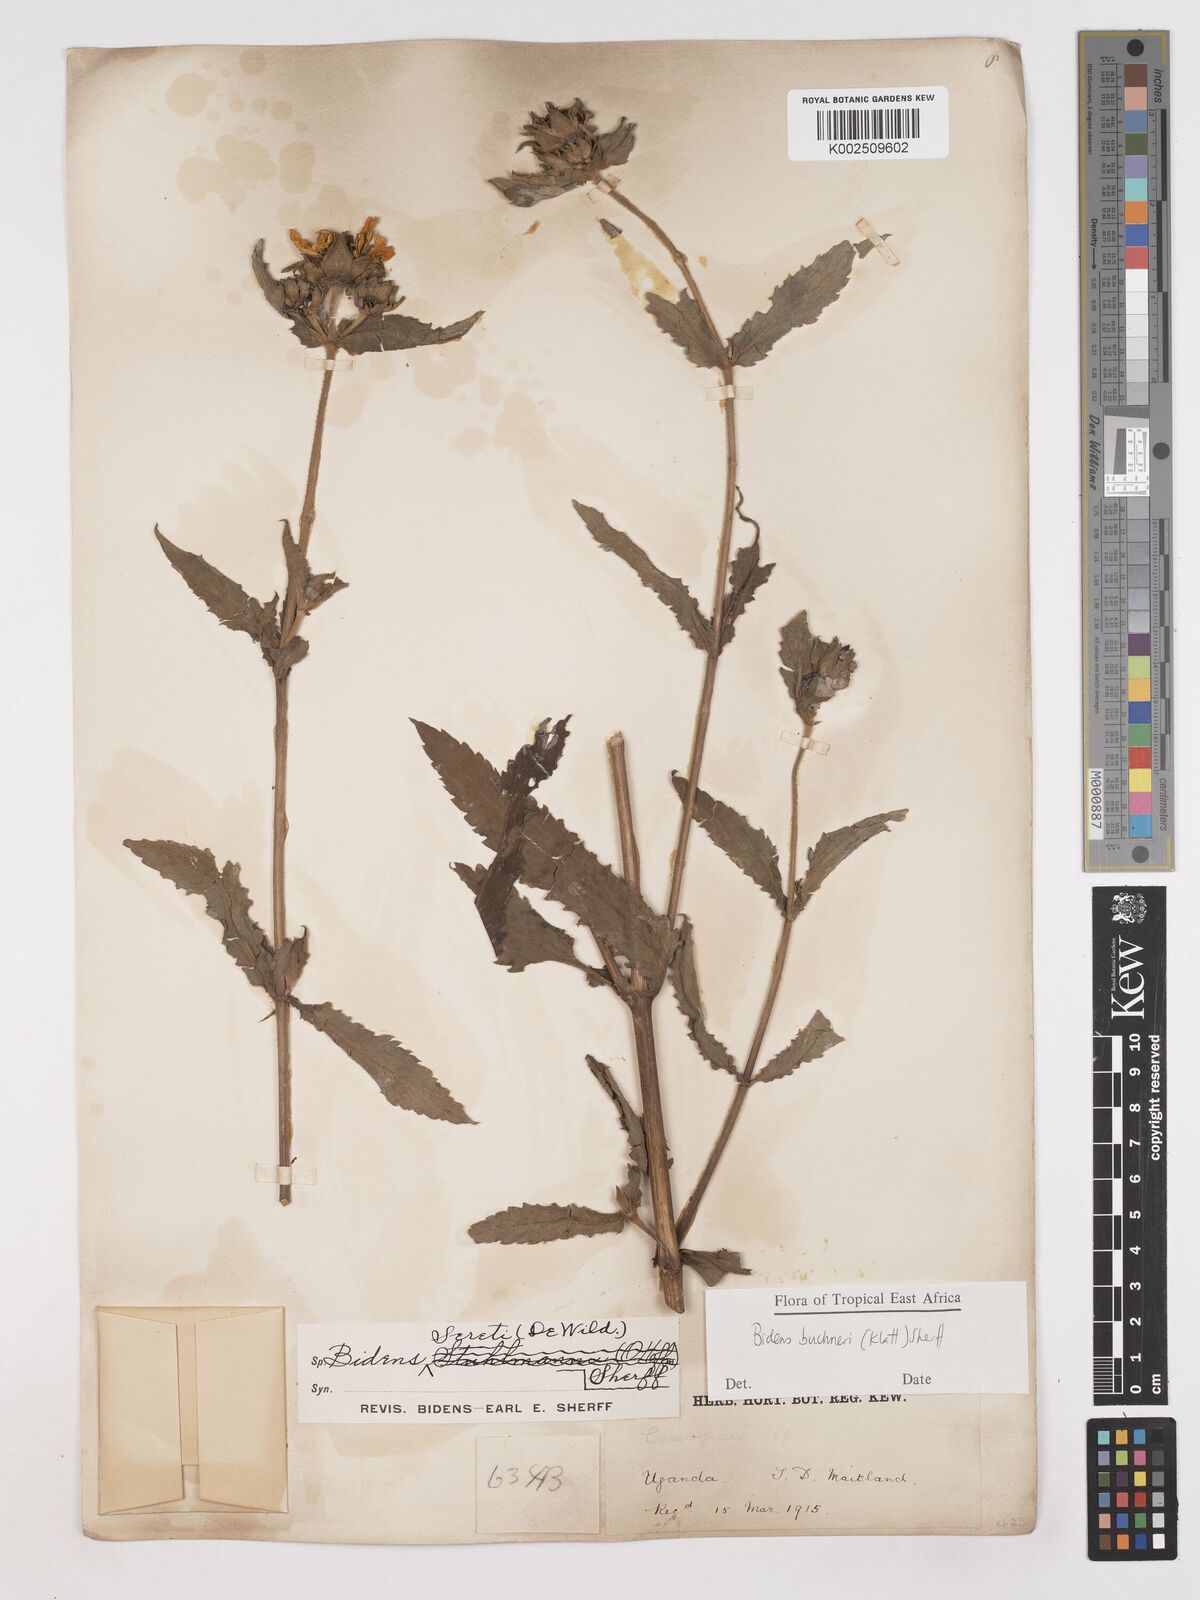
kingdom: Plantae
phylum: Tracheophyta
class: Magnoliopsida
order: Asterales
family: Asteraceae
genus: Bidens
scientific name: Bidens buchneri
